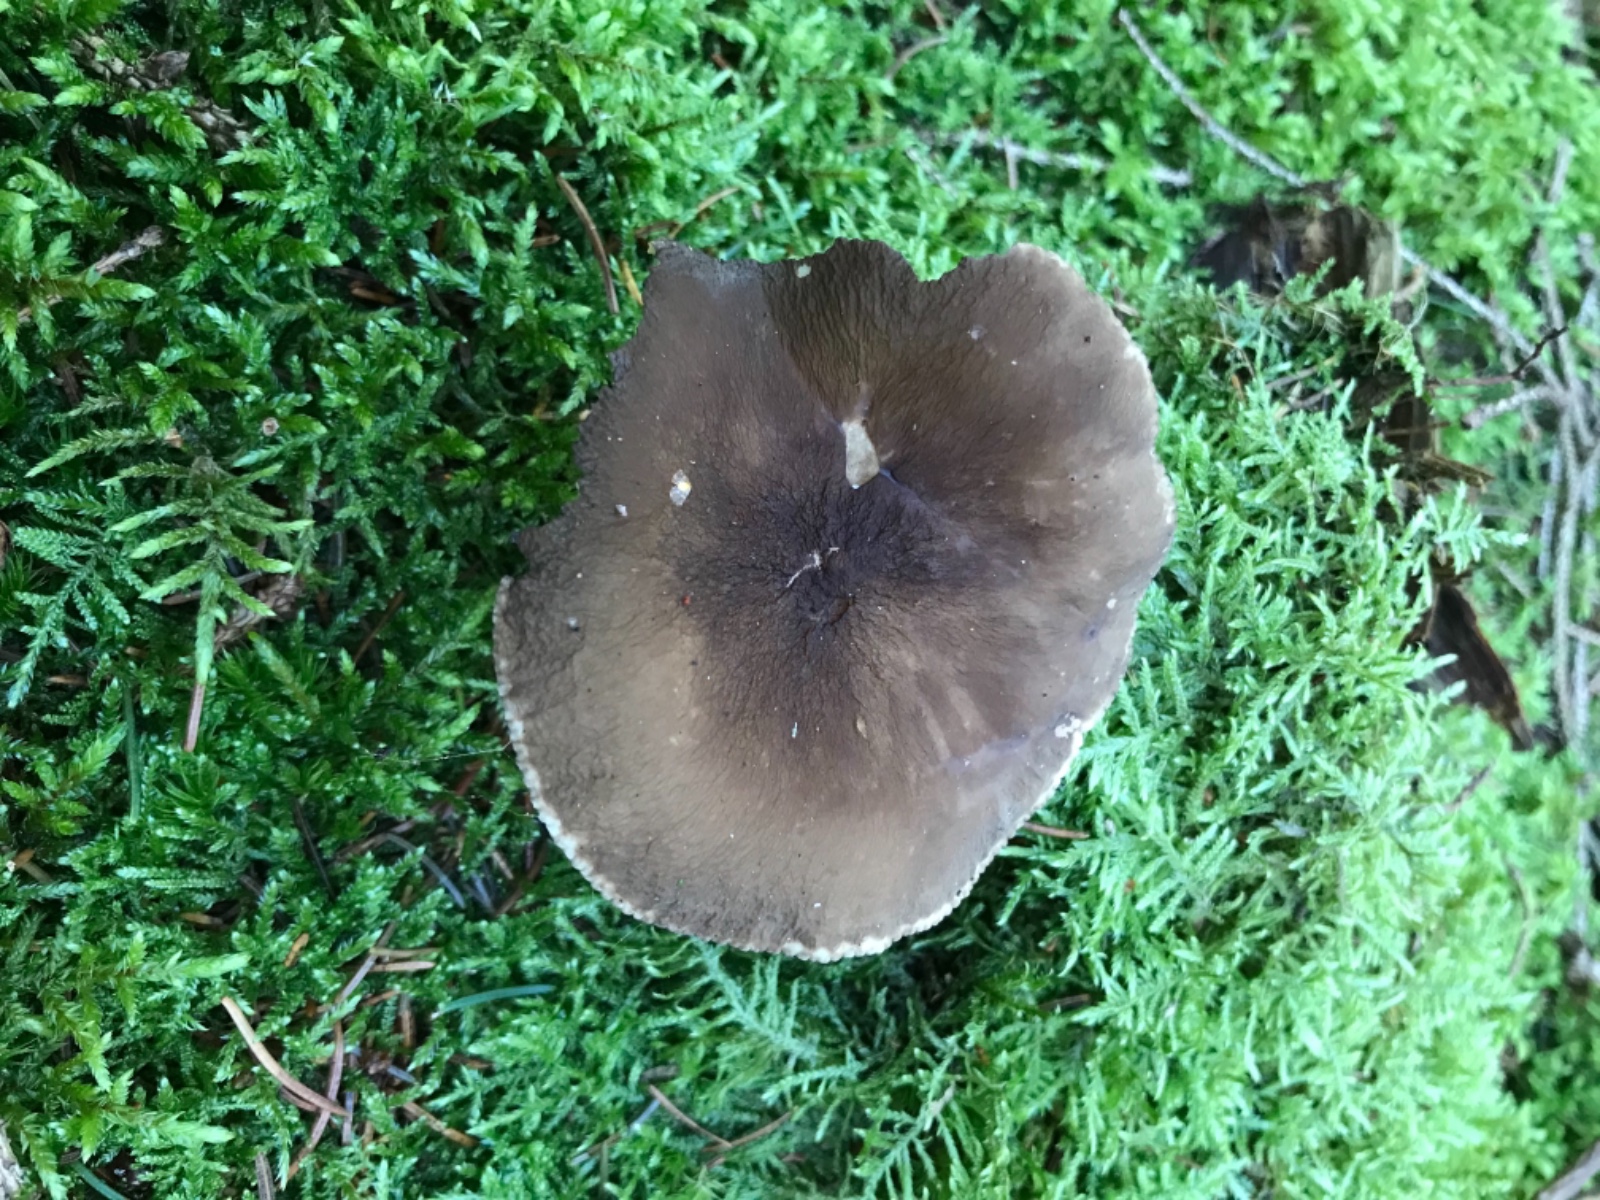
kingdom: Fungi
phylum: Basidiomycota
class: Agaricomycetes
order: Russulales
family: Russulaceae
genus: Lactarius
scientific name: Lactarius lignyotus
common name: fløjls-mælkehat
